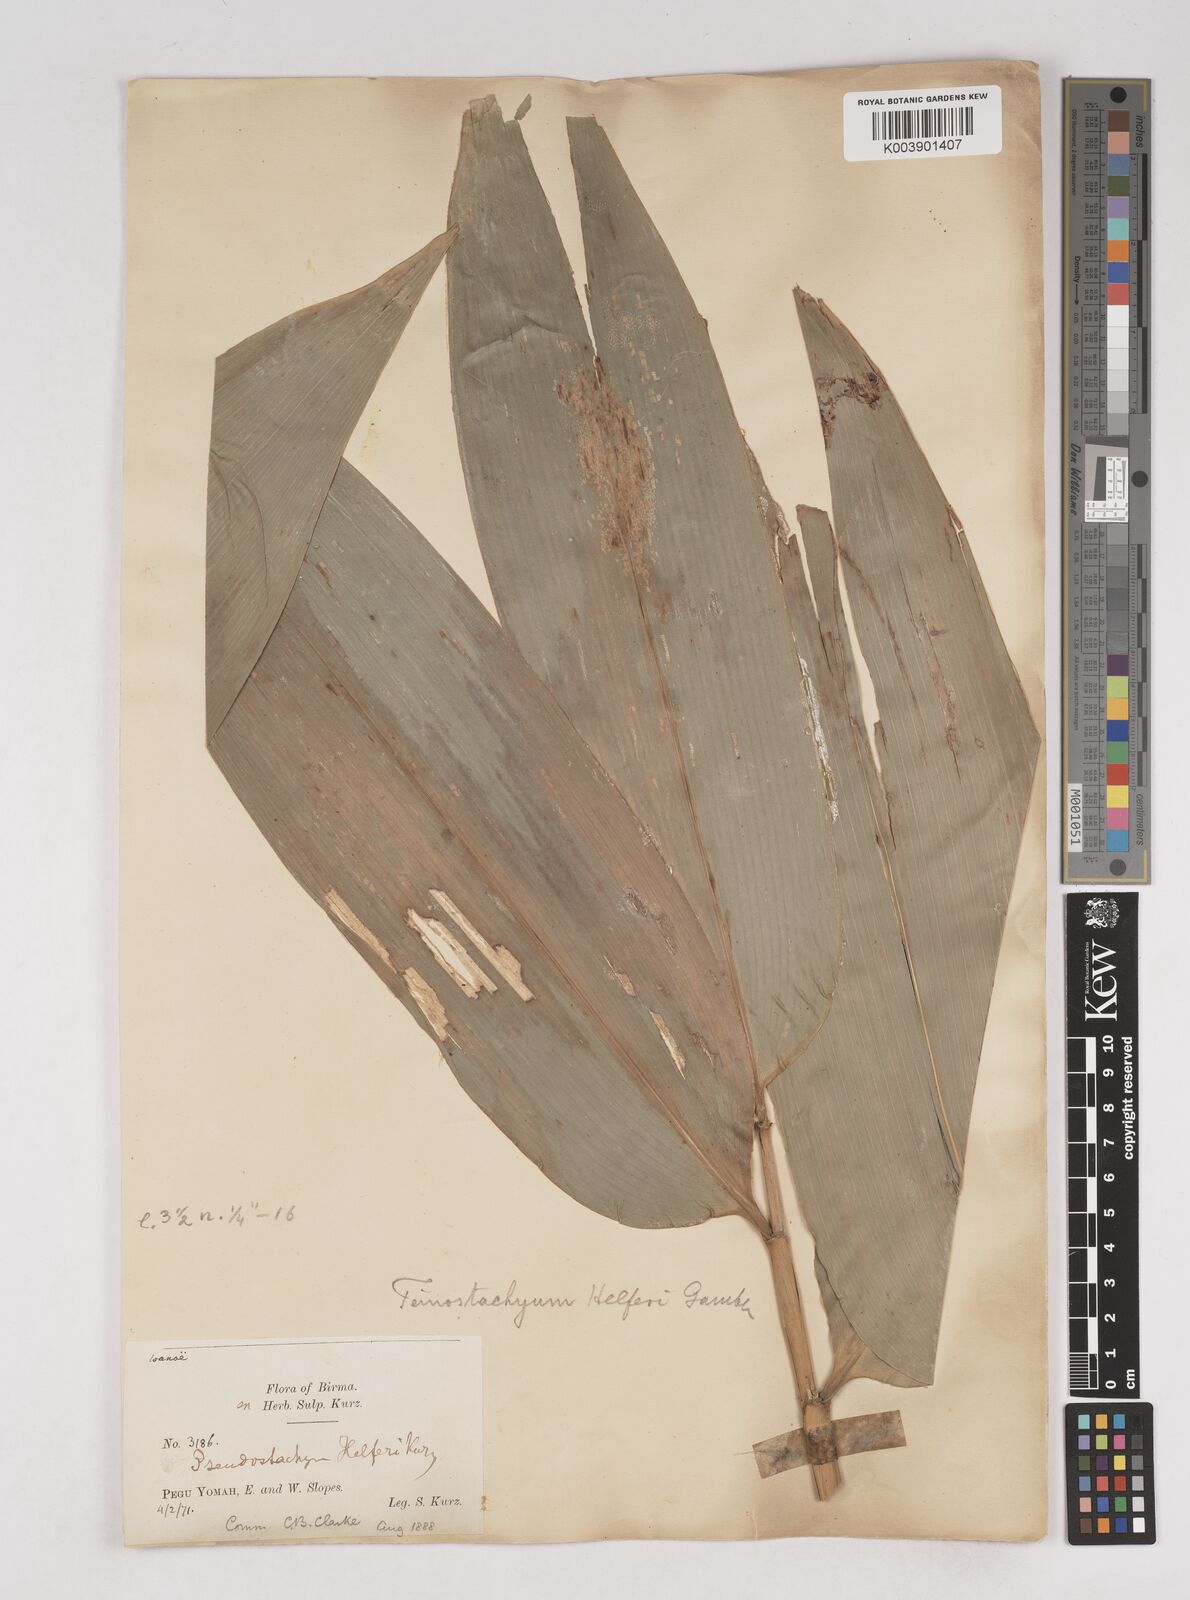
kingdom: Plantae
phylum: Tracheophyta
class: Liliopsida
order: Poales
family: Poaceae
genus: Schizostachyum
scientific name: Schizostachyum helferi
